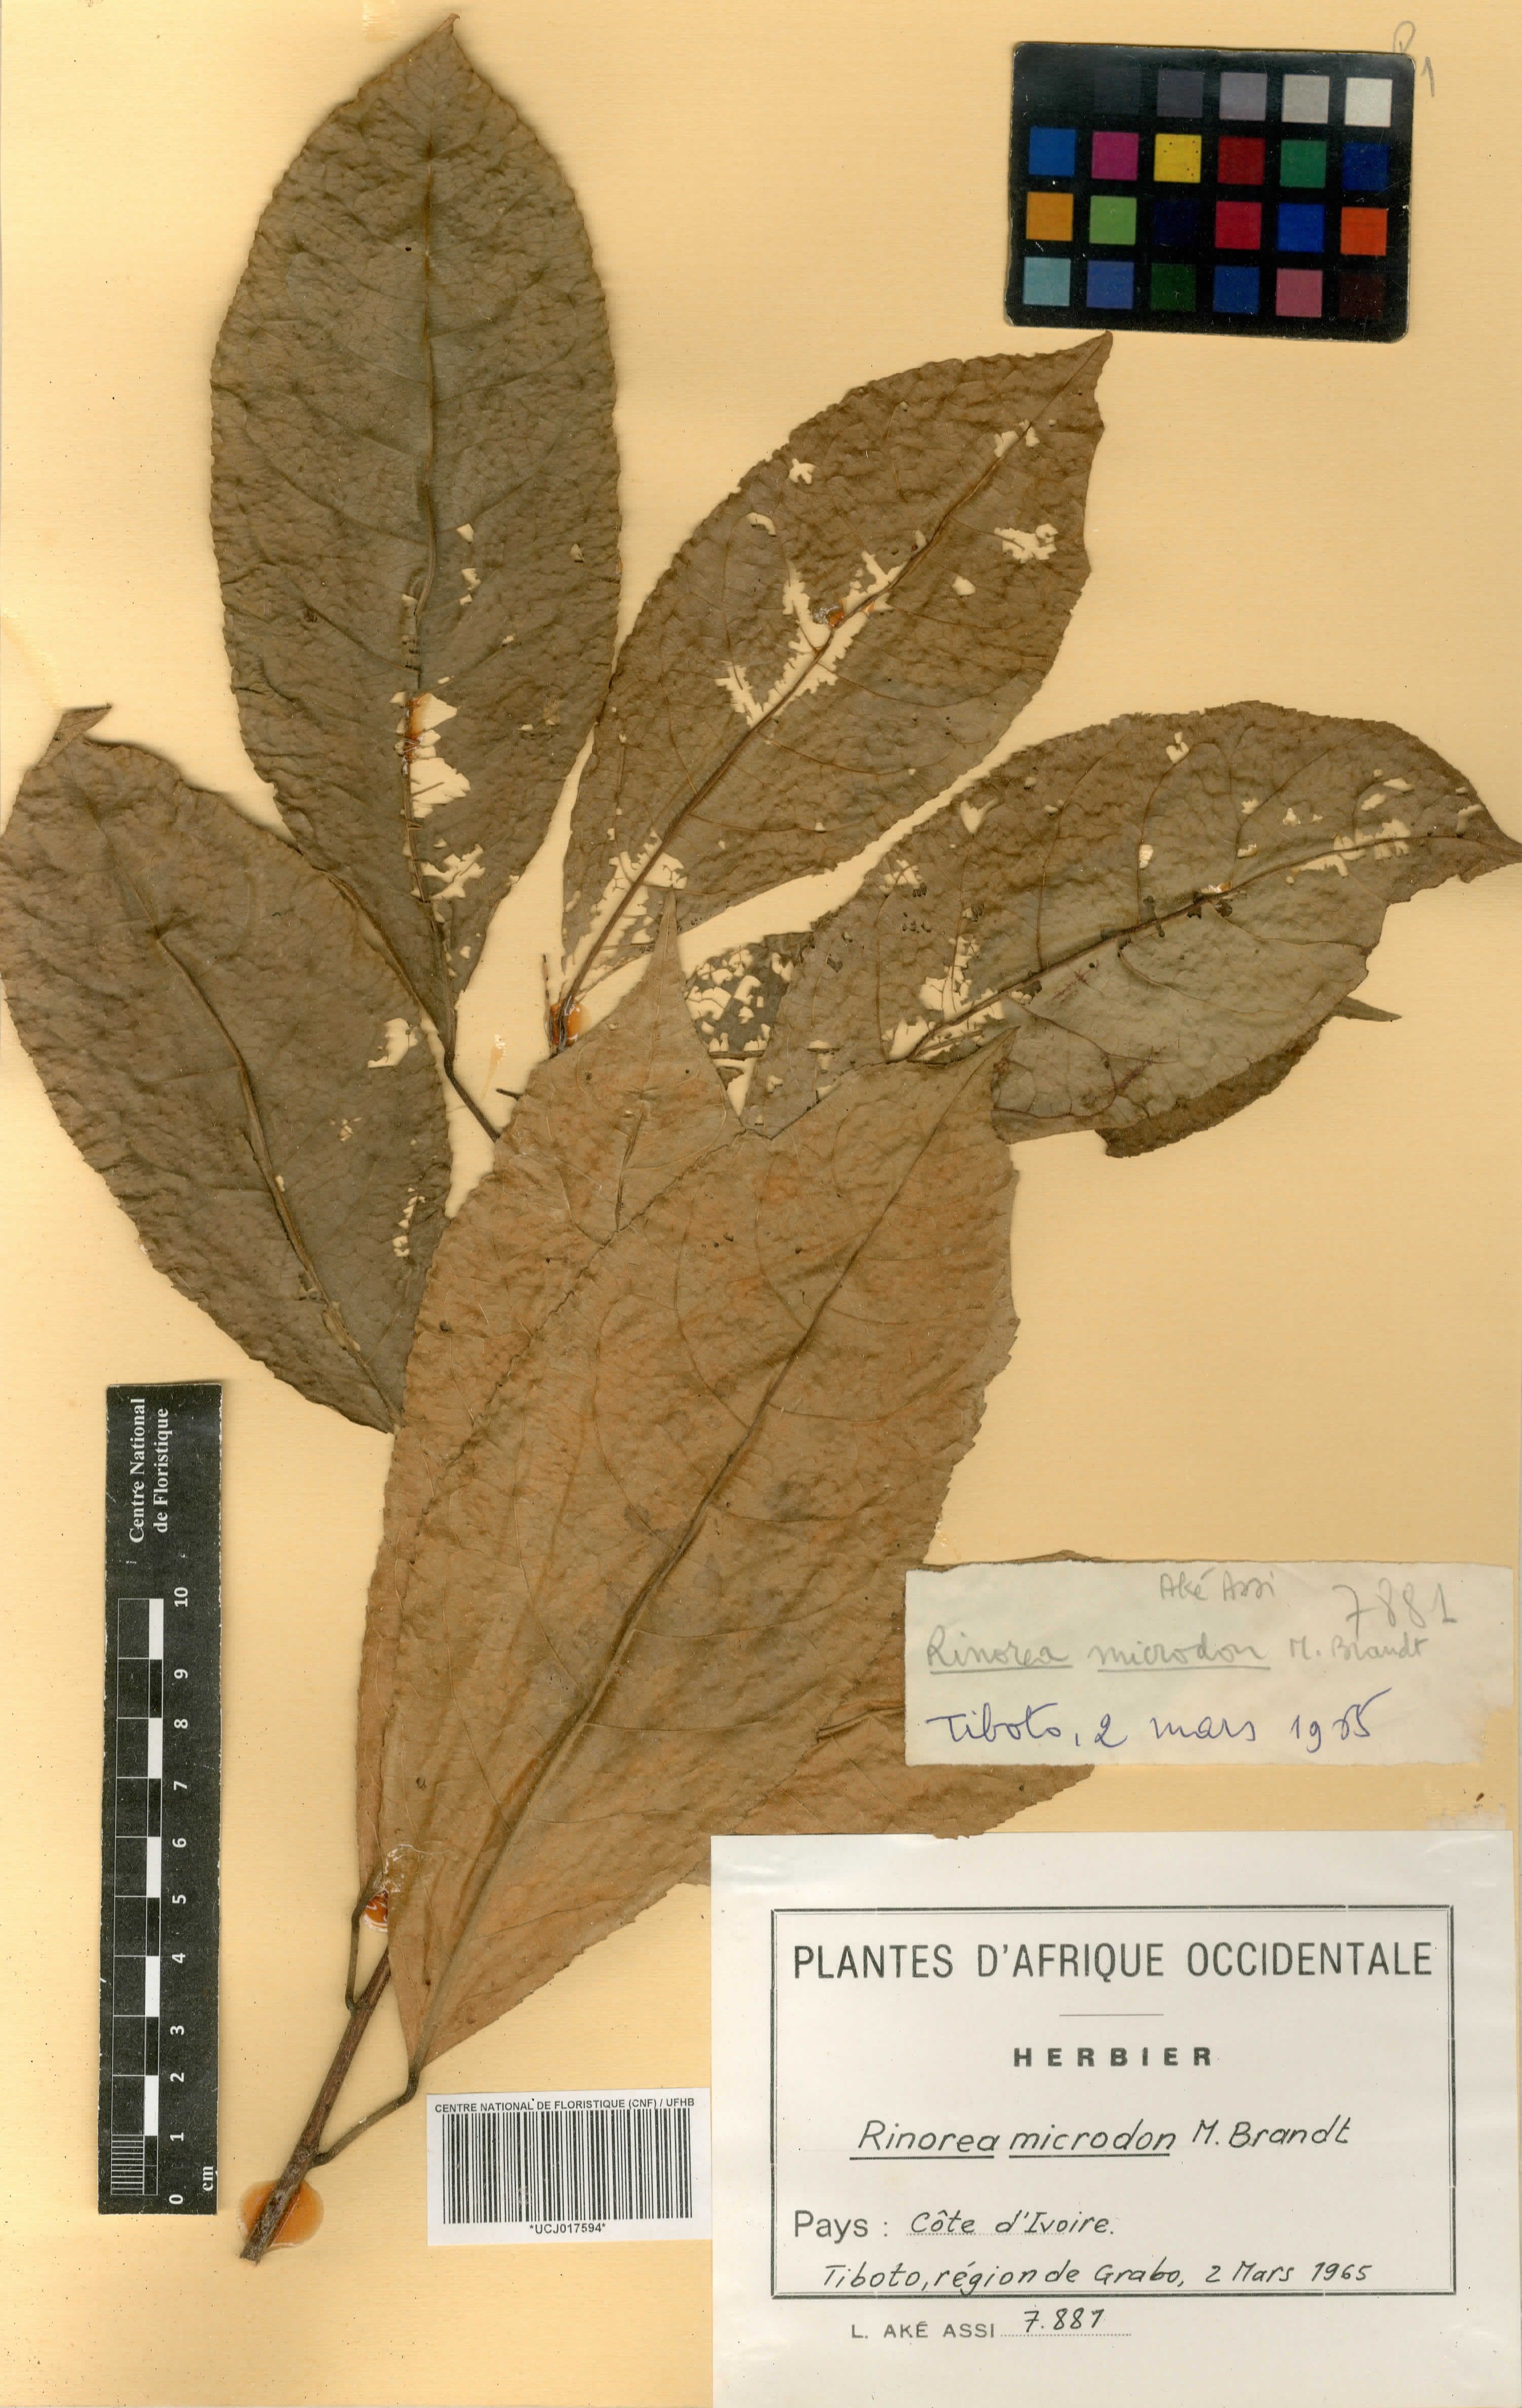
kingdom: Plantae
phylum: Tracheophyta
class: Magnoliopsida
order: Malpighiales
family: Violaceae
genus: Rinorea
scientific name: Rinorea microdon
